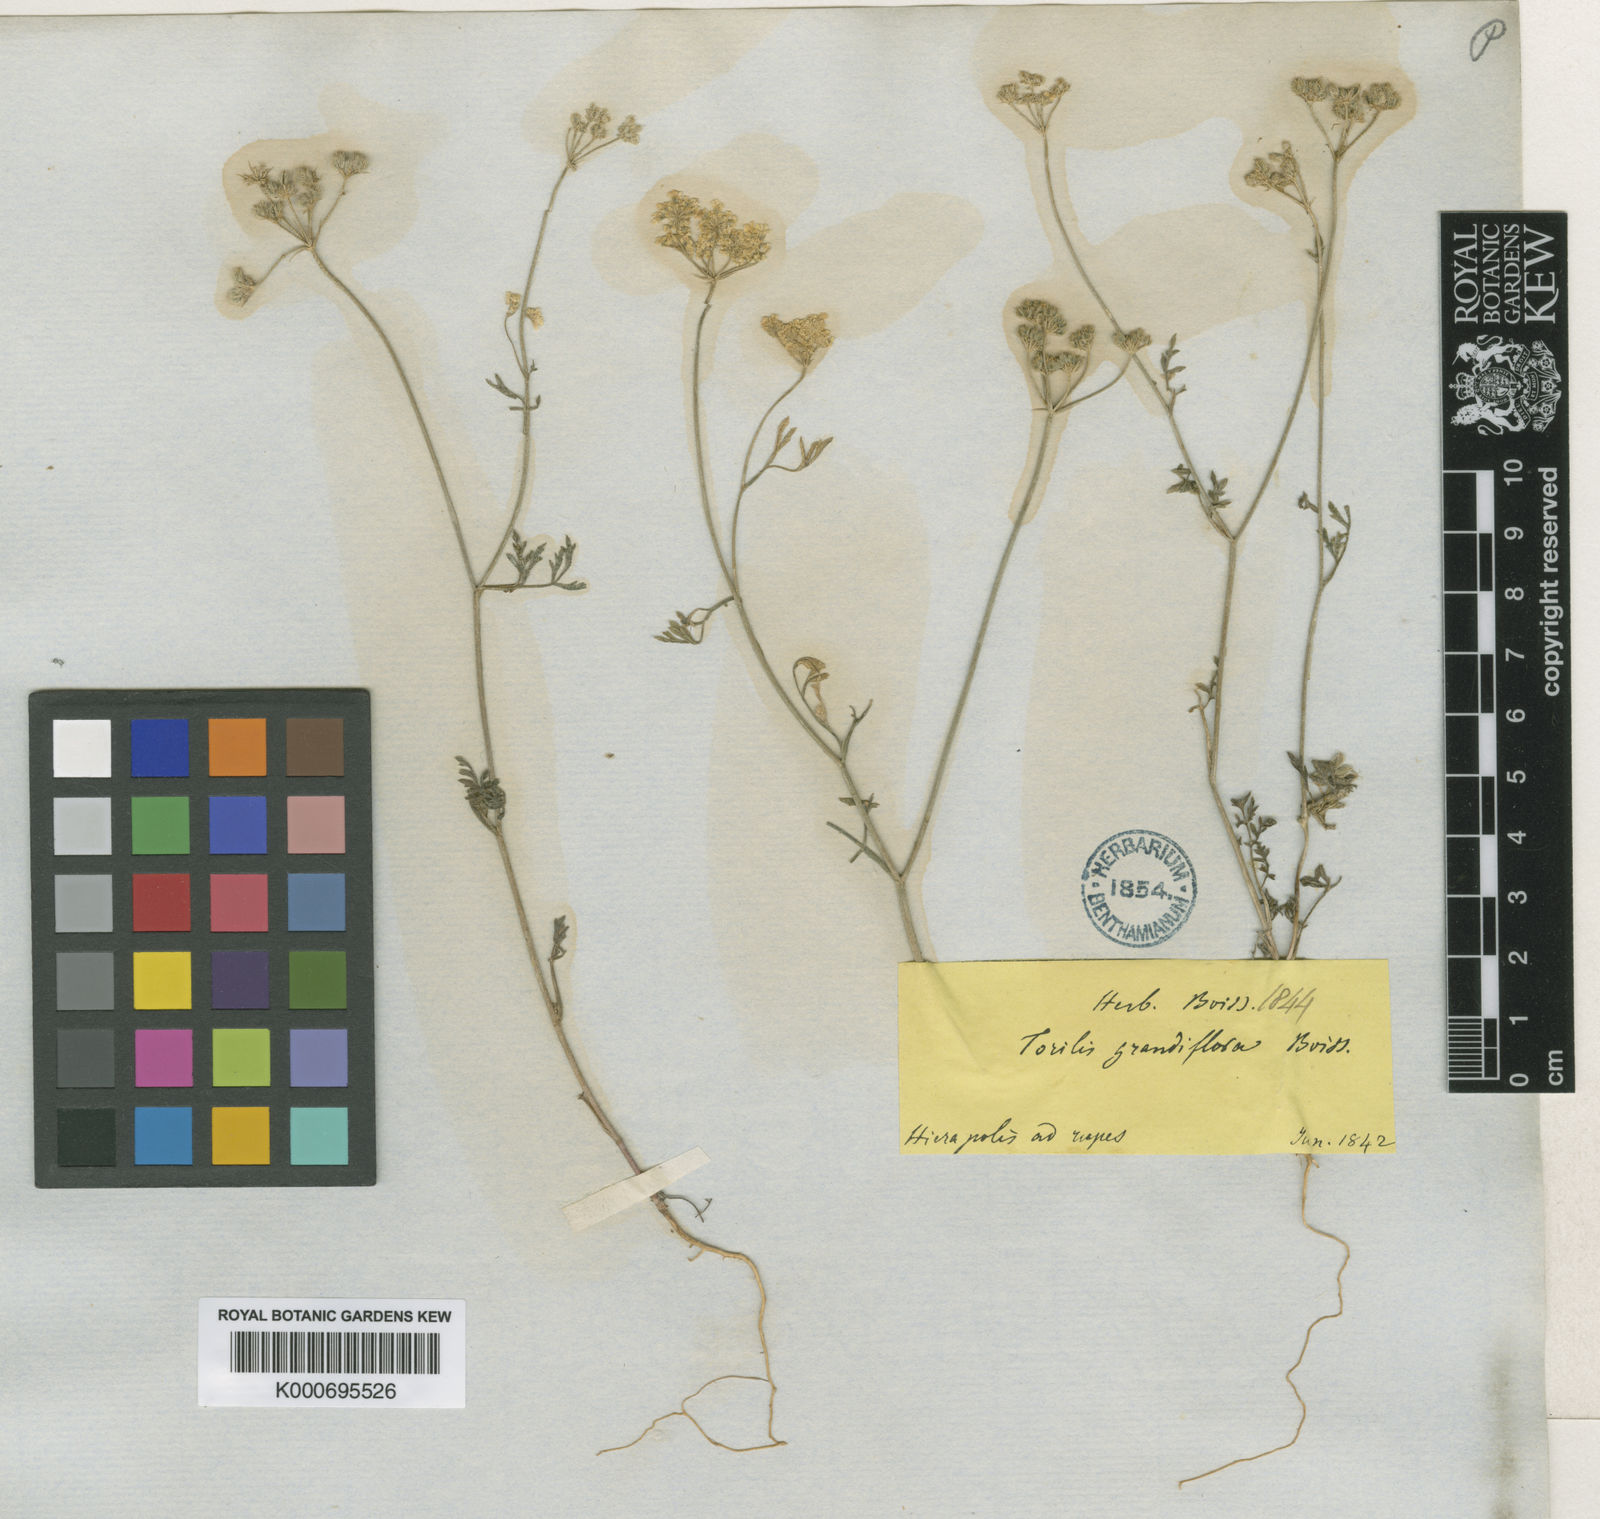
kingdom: Plantae
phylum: Tracheophyta
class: Magnoliopsida
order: Apiales
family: Apiaceae
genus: Torilis
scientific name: Torilis ucranica
